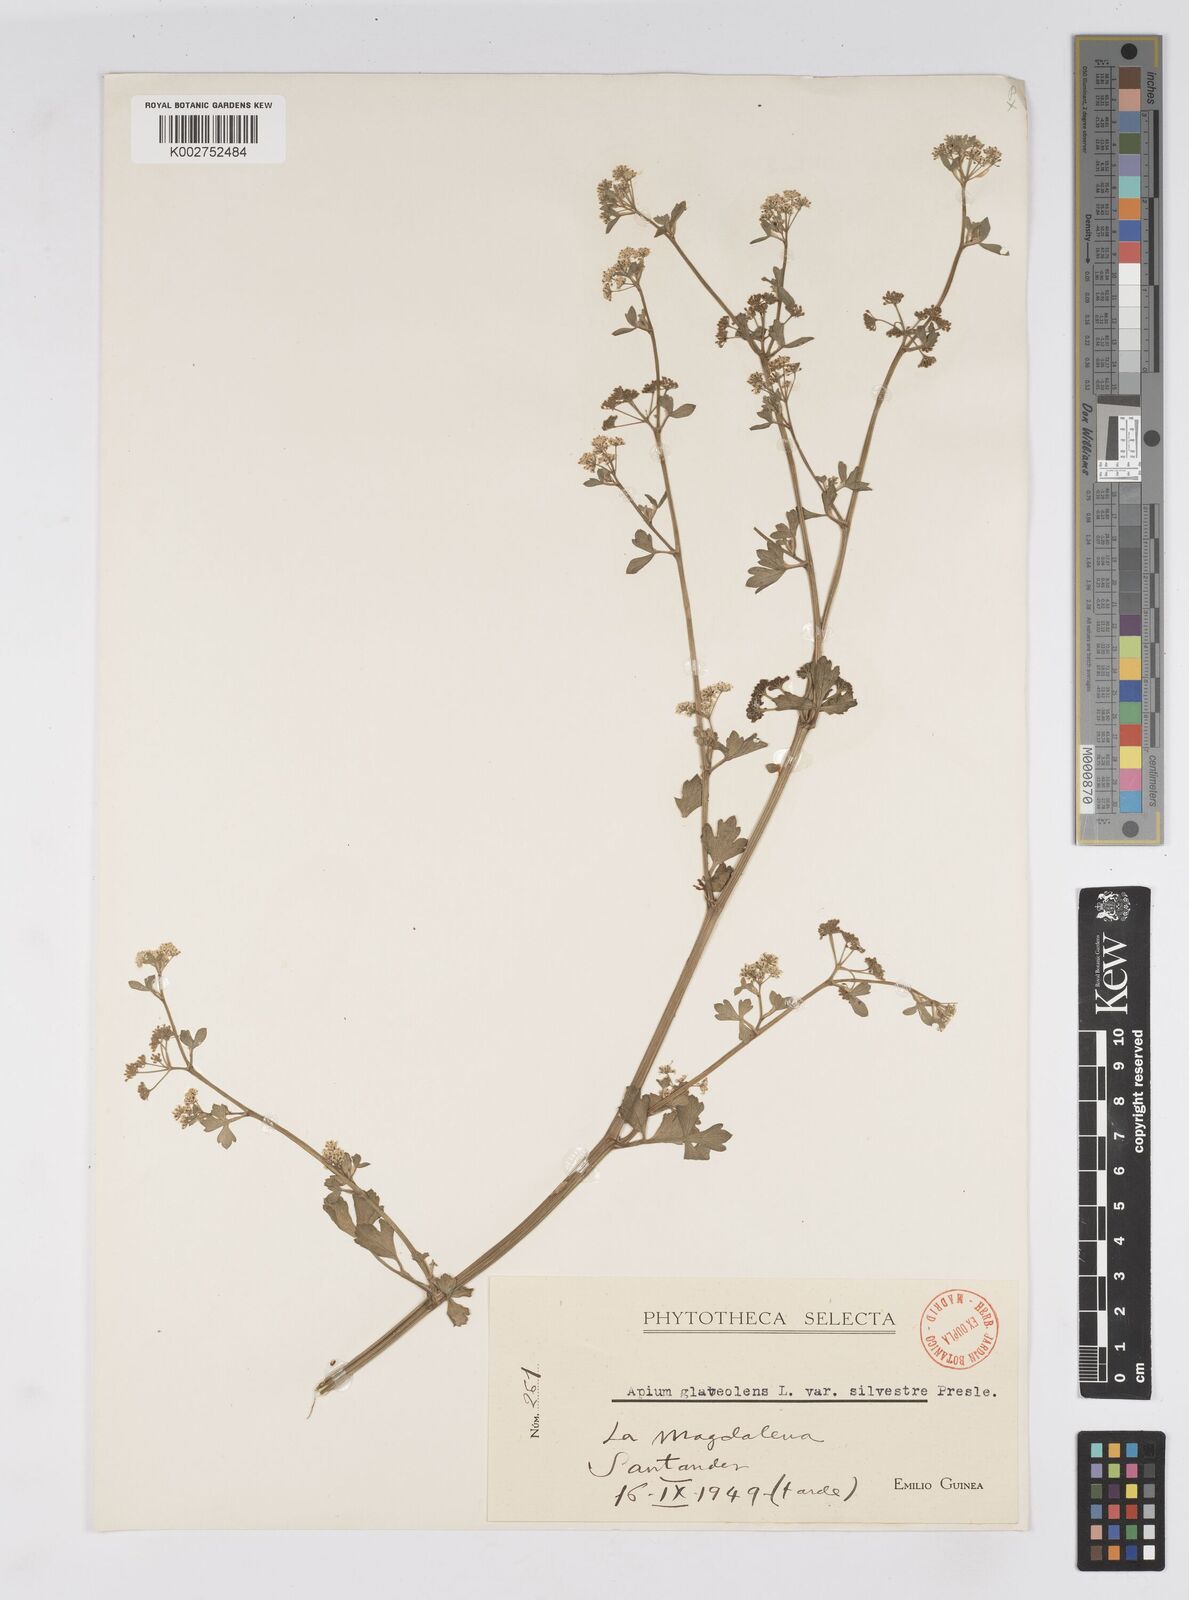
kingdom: Plantae
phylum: Tracheophyta
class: Magnoliopsida
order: Apiales
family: Apiaceae
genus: Apium
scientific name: Apium graveolens
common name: Wild celery
